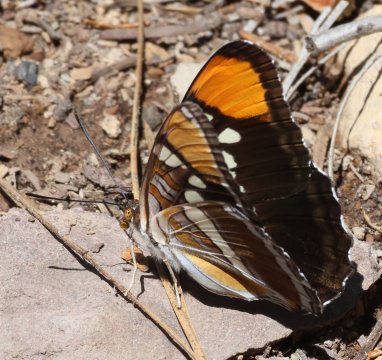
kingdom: Animalia
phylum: Arthropoda
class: Insecta
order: Lepidoptera
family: Nymphalidae
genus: Limenitis
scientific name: Limenitis bredowii
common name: California Sister
